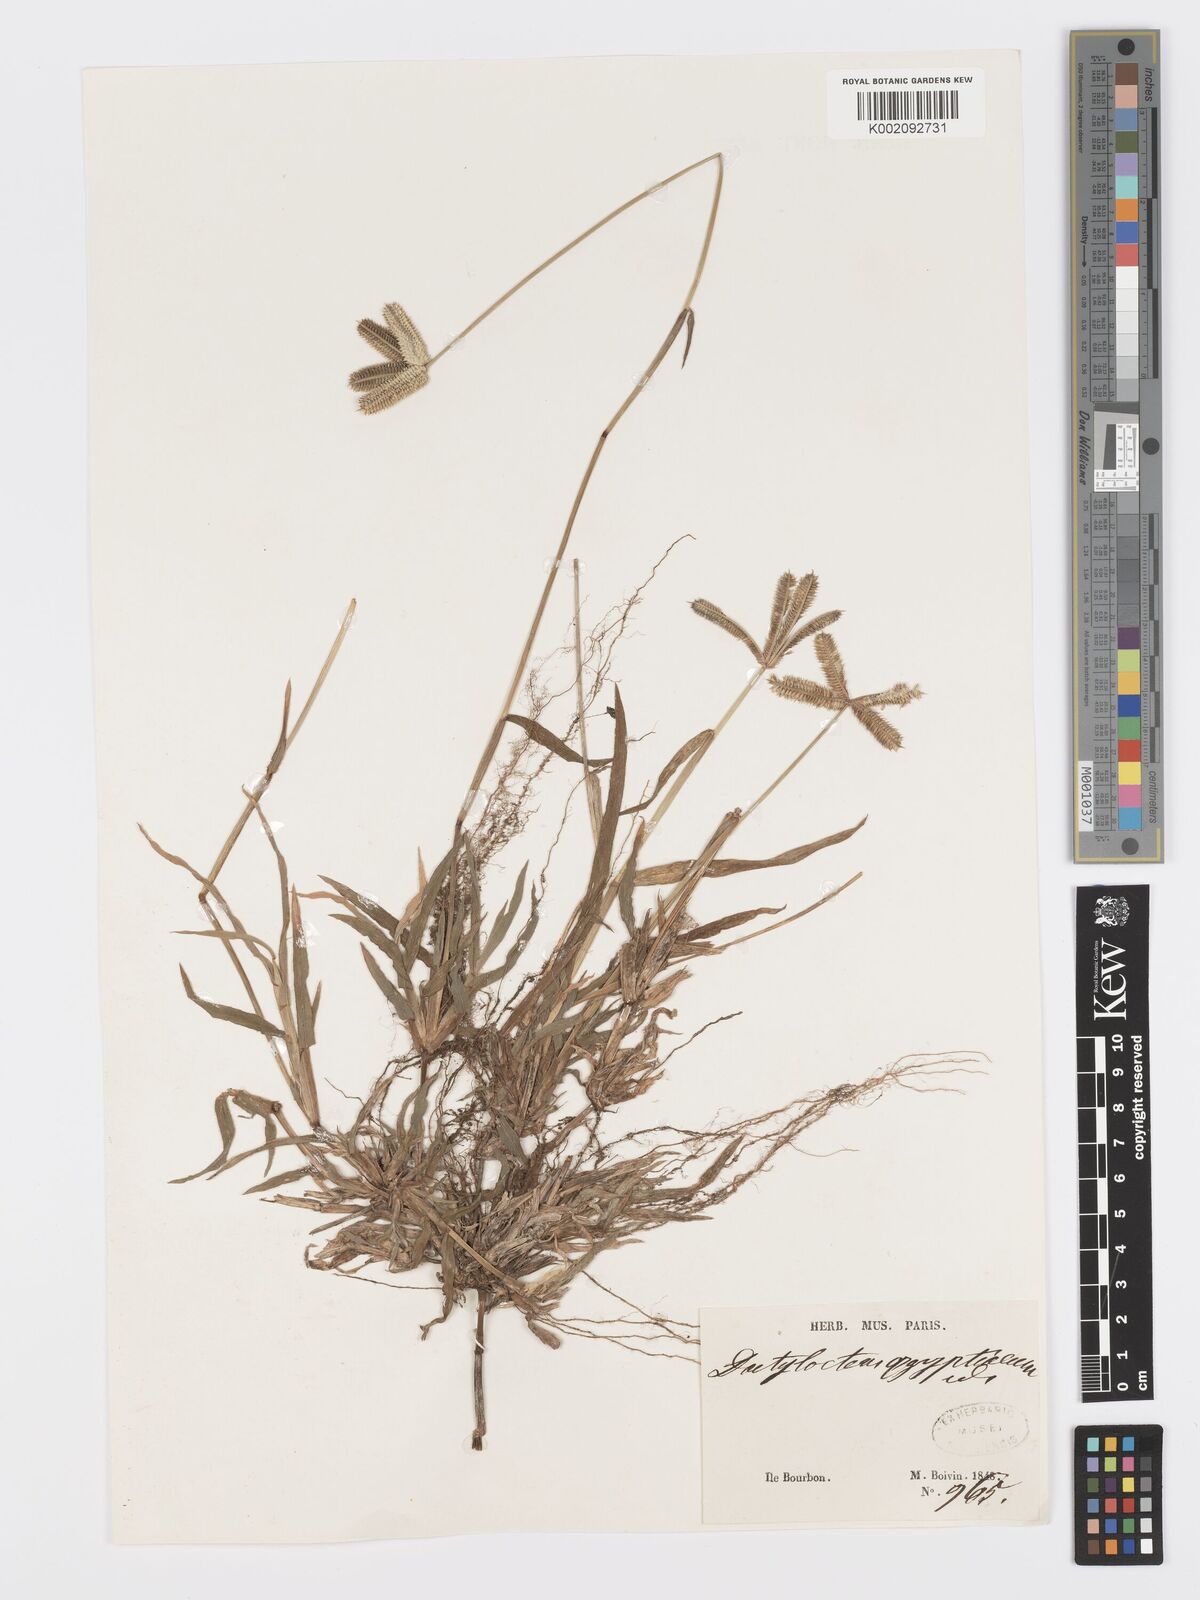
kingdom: Plantae
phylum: Tracheophyta
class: Liliopsida
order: Poales
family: Poaceae
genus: Dactyloctenium
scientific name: Dactyloctenium aegyptium
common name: Egyptian grass
